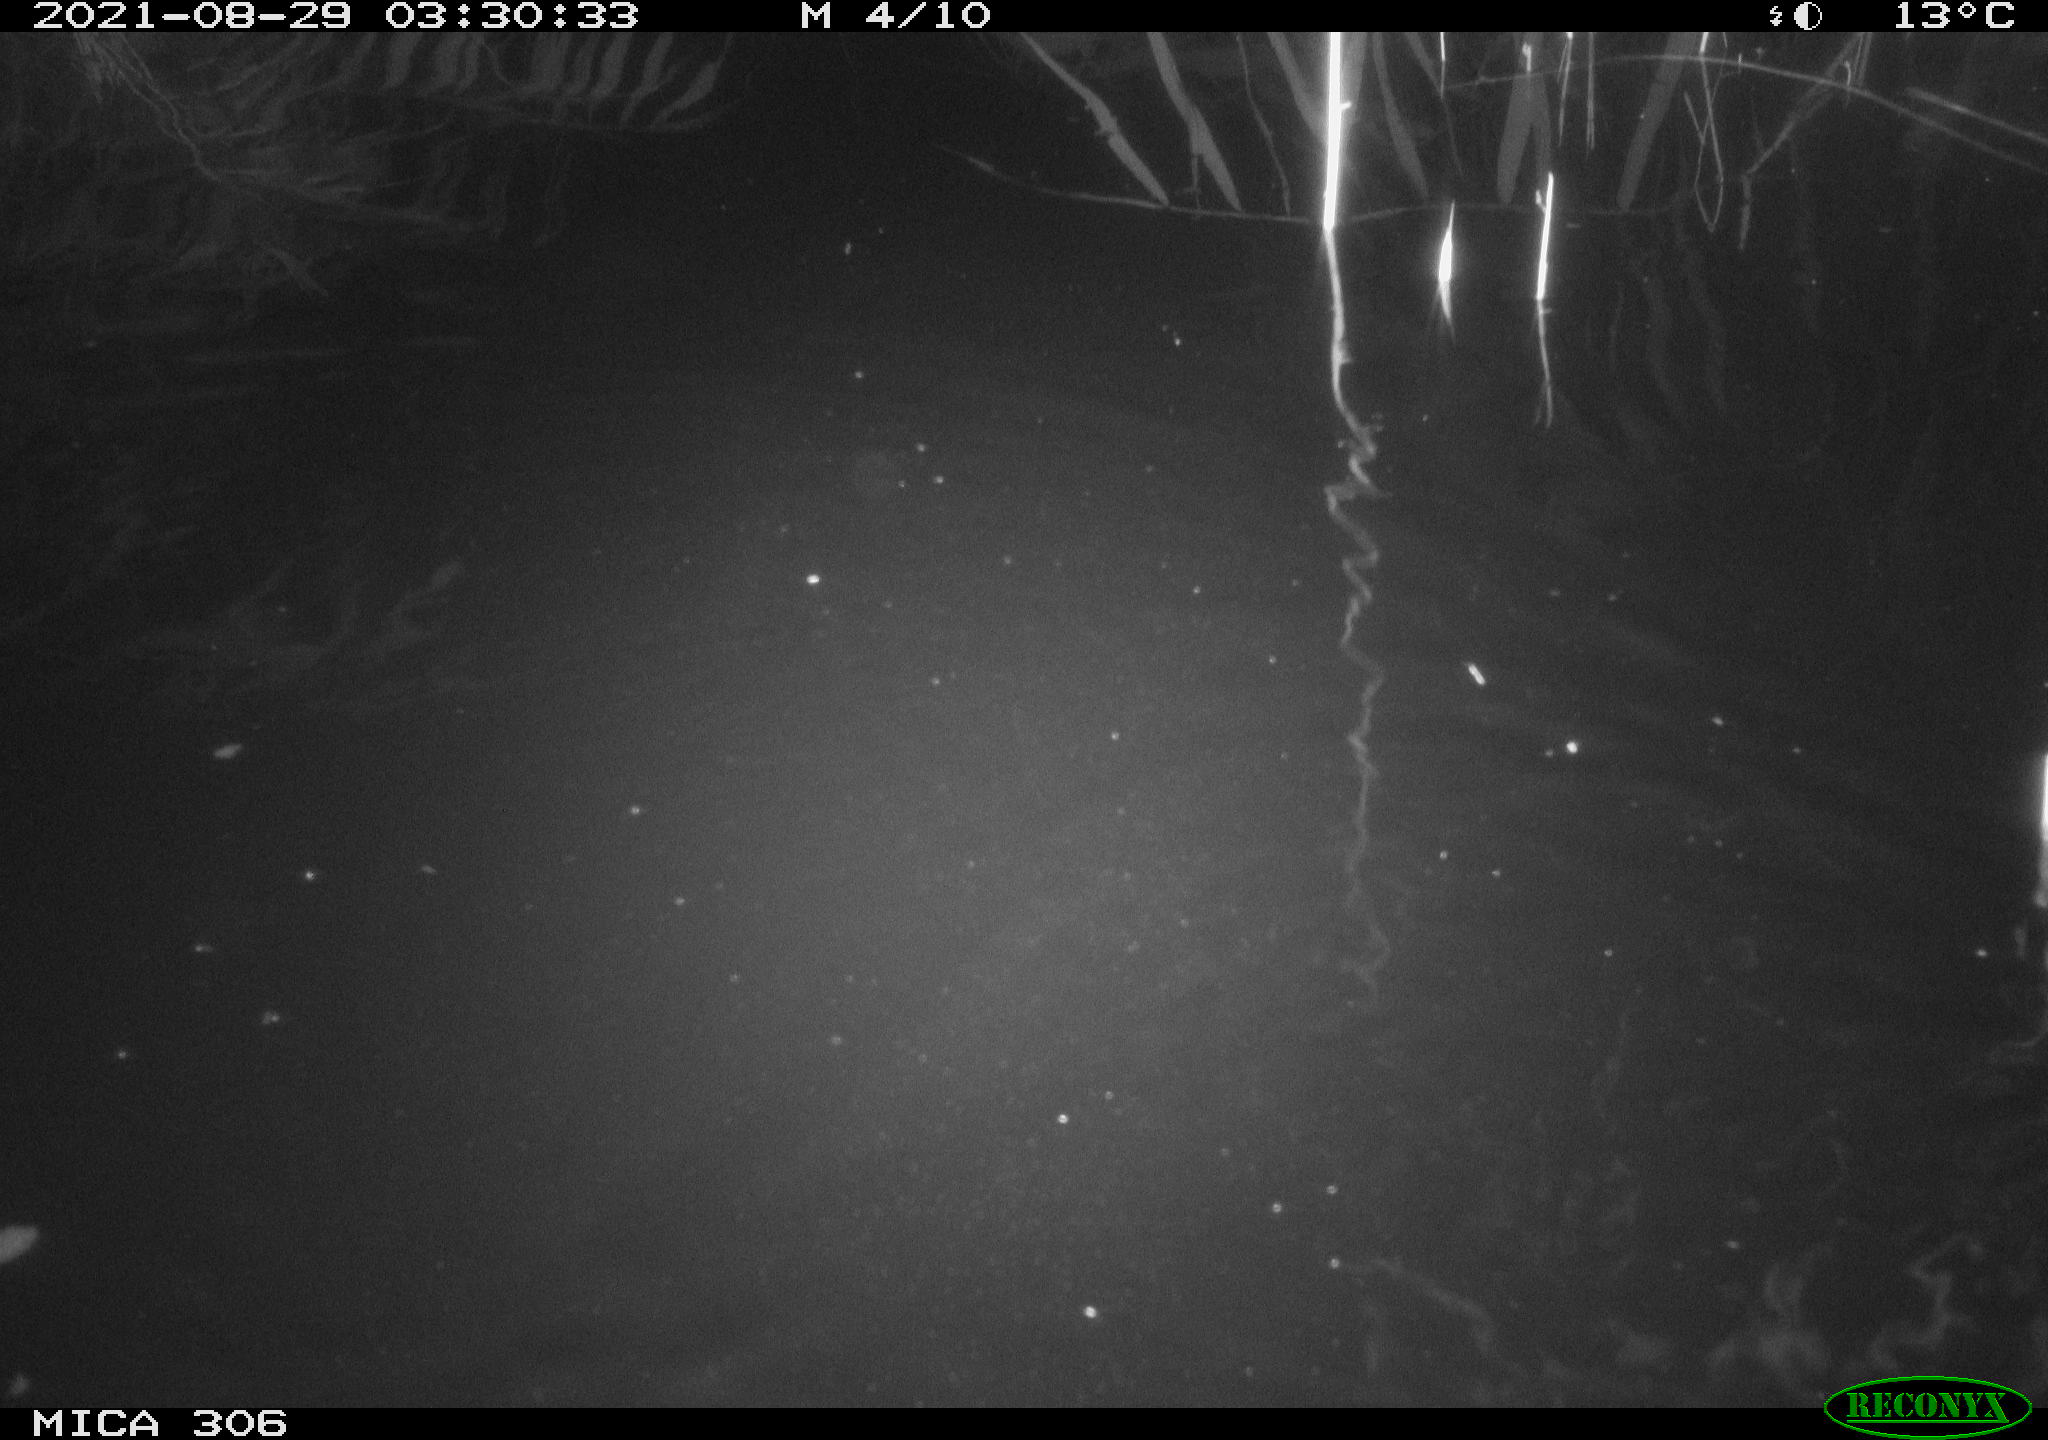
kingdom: Animalia
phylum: Chordata
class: Mammalia
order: Rodentia
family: Muridae
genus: Rattus
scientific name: Rattus norvegicus
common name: Brown rat
